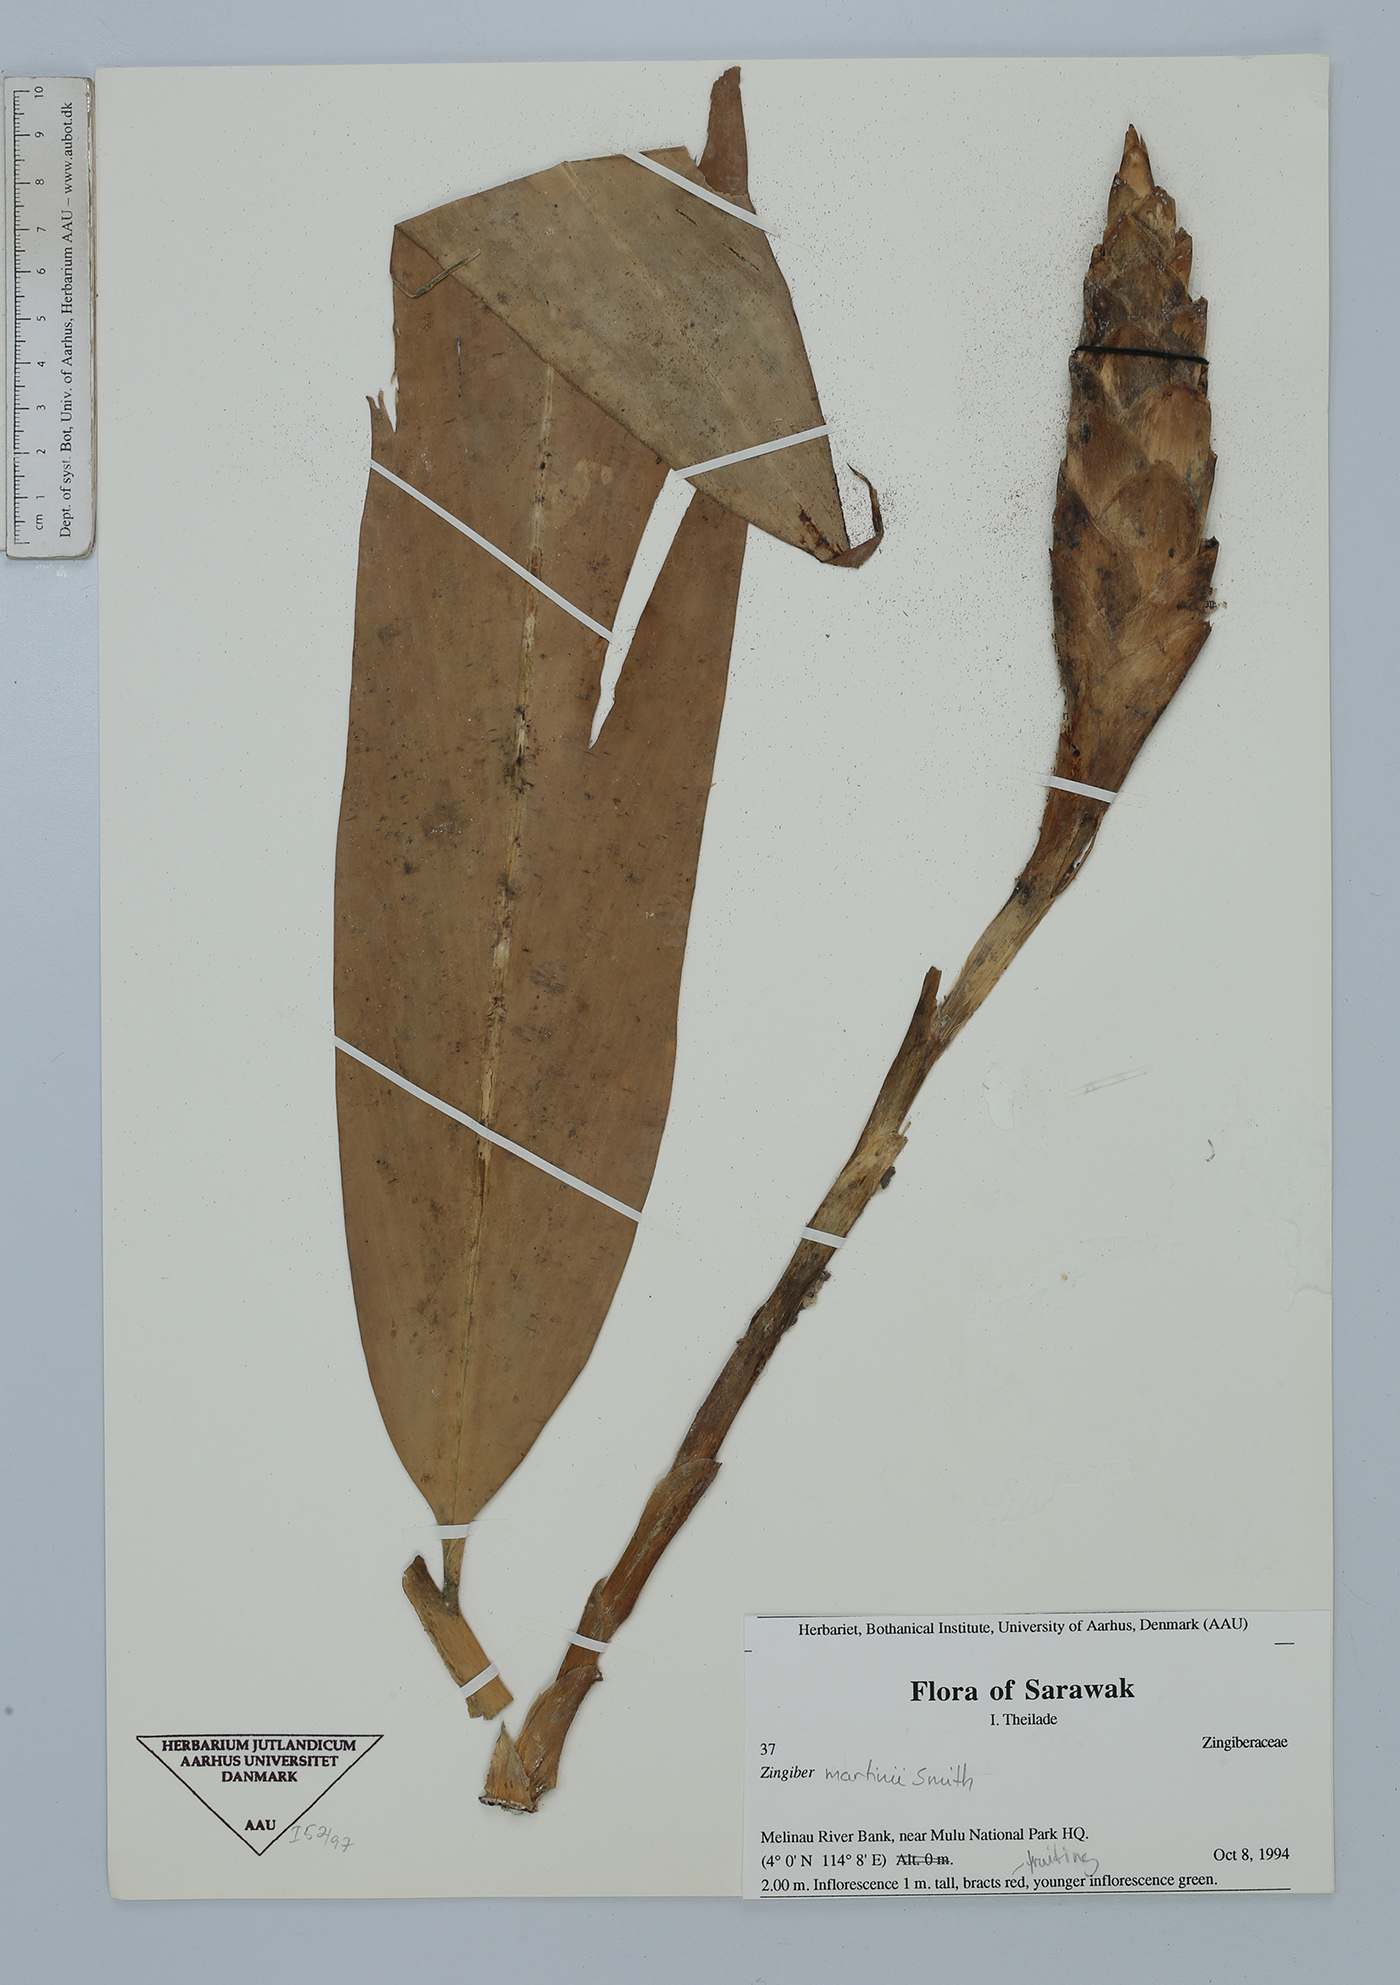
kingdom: Plantae
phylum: Tracheophyta
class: Liliopsida
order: Zingiberales
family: Zingiberaceae
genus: Zingiber
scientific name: Zingiber martini
